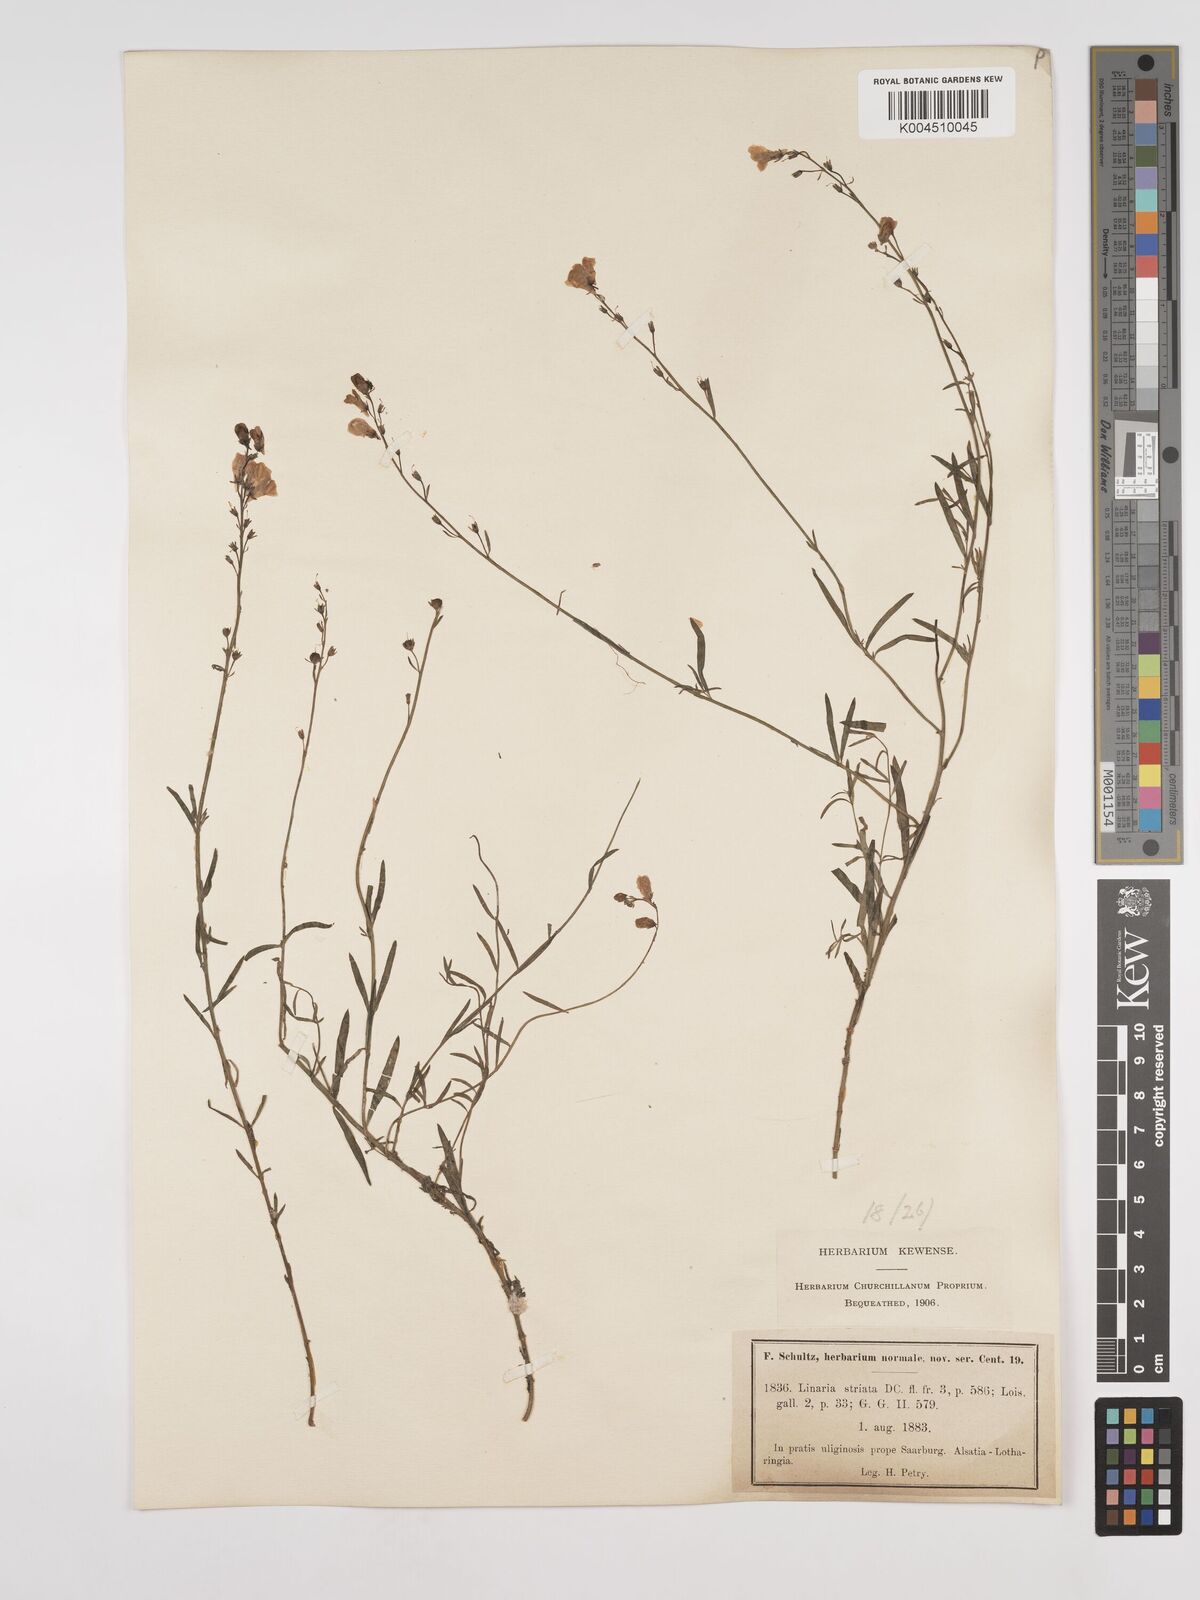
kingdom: Plantae
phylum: Tracheophyta
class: Magnoliopsida
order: Lamiales
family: Plantaginaceae
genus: Linaria
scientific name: Linaria repens
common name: Pale toadflax
